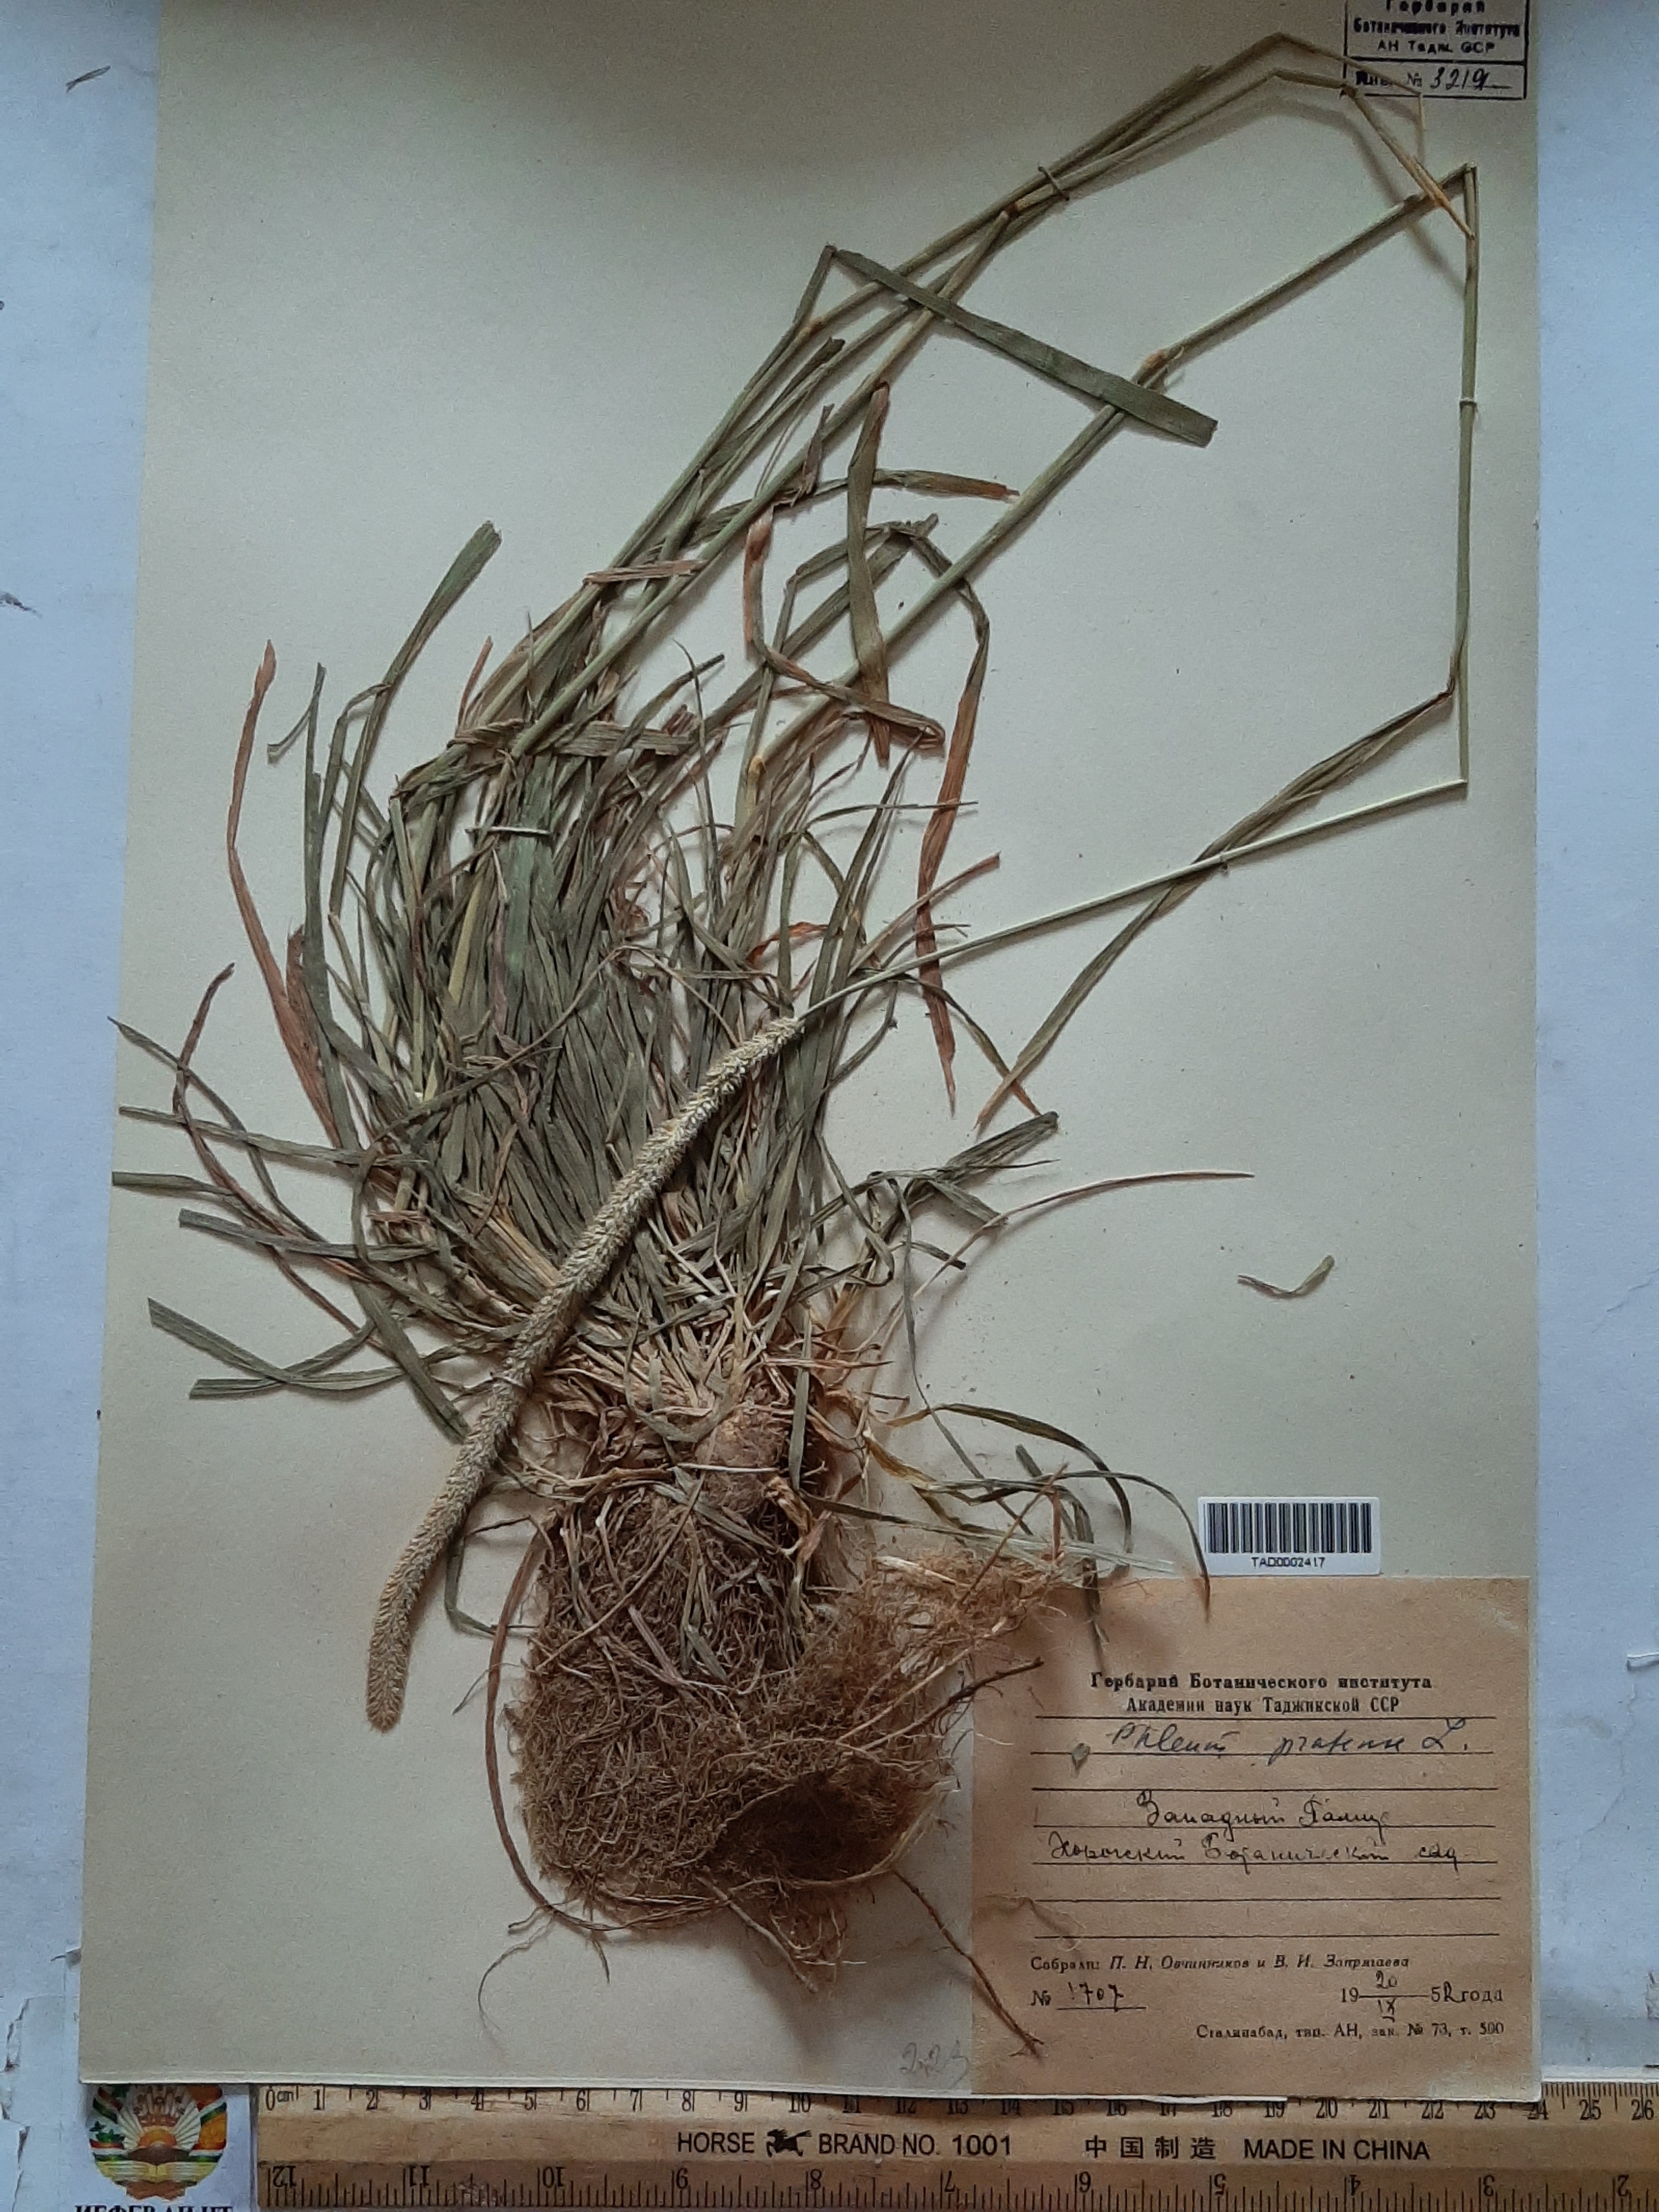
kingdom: Plantae
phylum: Tracheophyta
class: Liliopsida
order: Poales
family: Poaceae
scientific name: Poaceae
